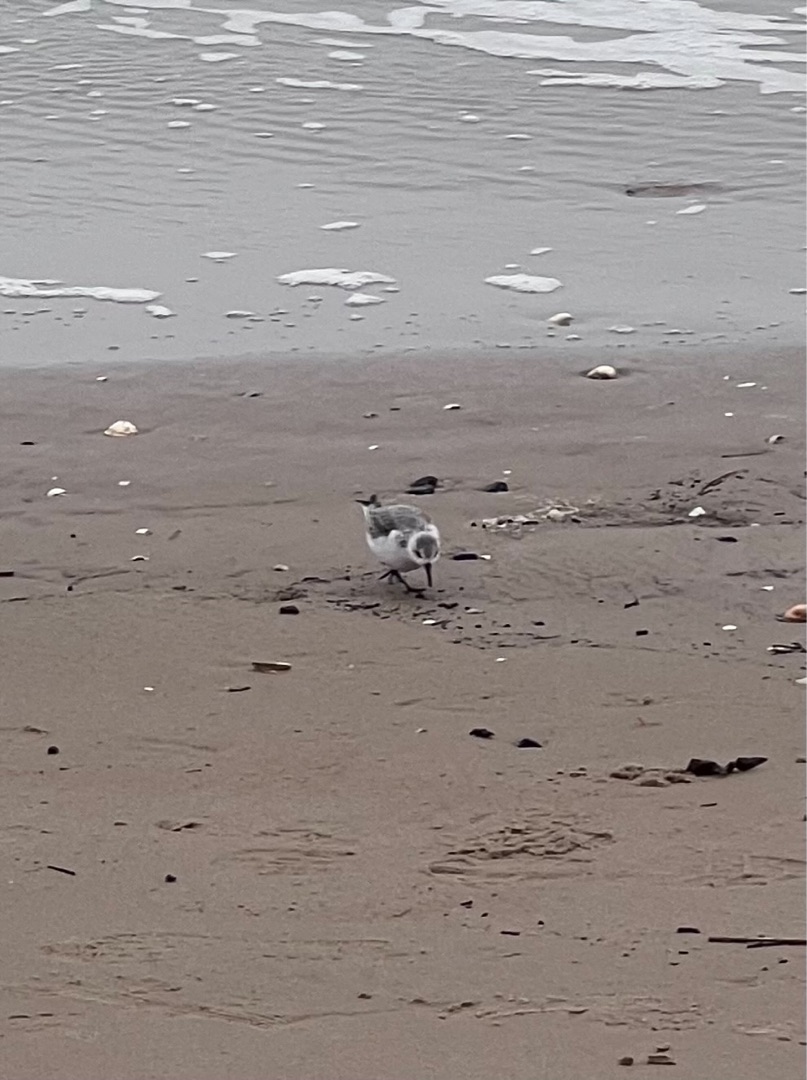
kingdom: Animalia
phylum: Chordata
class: Aves
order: Charadriiformes
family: Scolopacidae
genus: Calidris
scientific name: Calidris alba
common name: Sandløber
